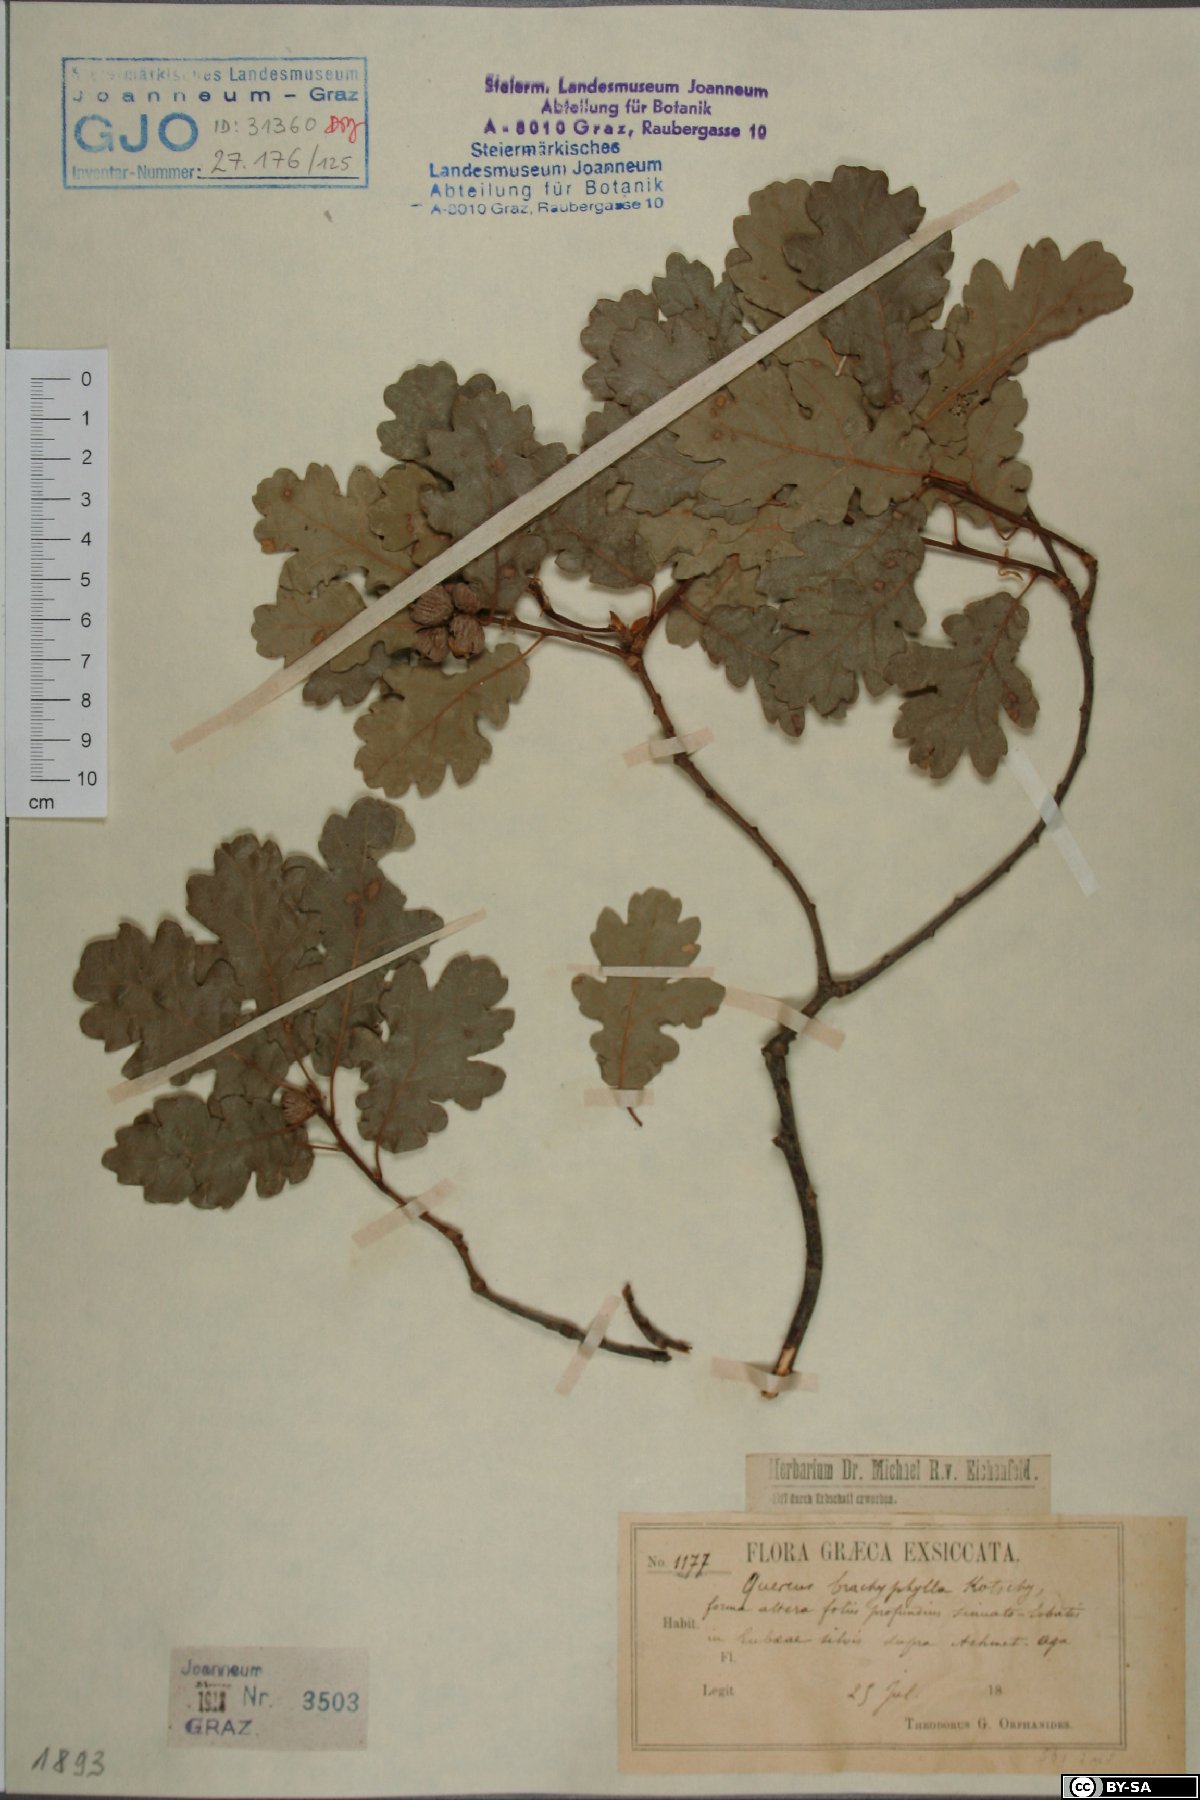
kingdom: Plantae
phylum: Tracheophyta
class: Magnoliopsida
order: Fagales
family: Fagaceae
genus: Quercus
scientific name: Quercus pubescens
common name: Downy oak
